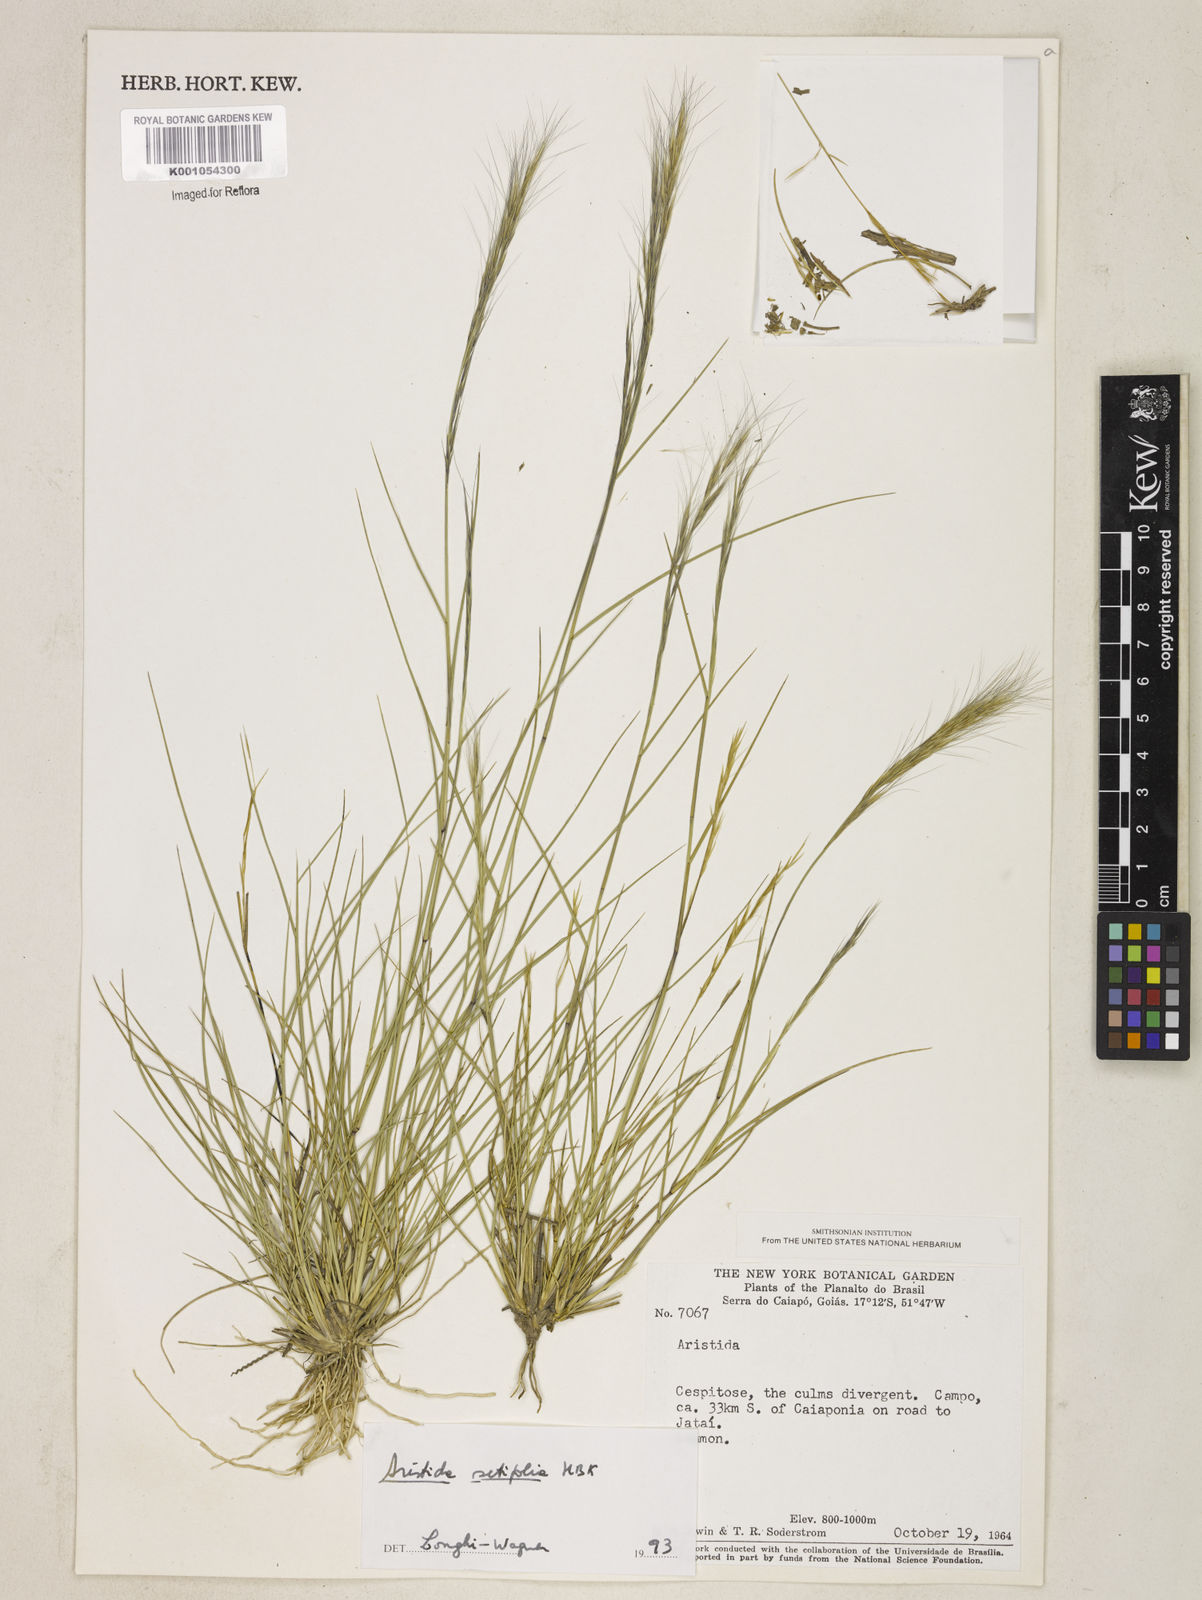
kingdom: Plantae
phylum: Tracheophyta
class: Liliopsida
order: Poales
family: Poaceae
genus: Aristida
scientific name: Aristida setifolia
